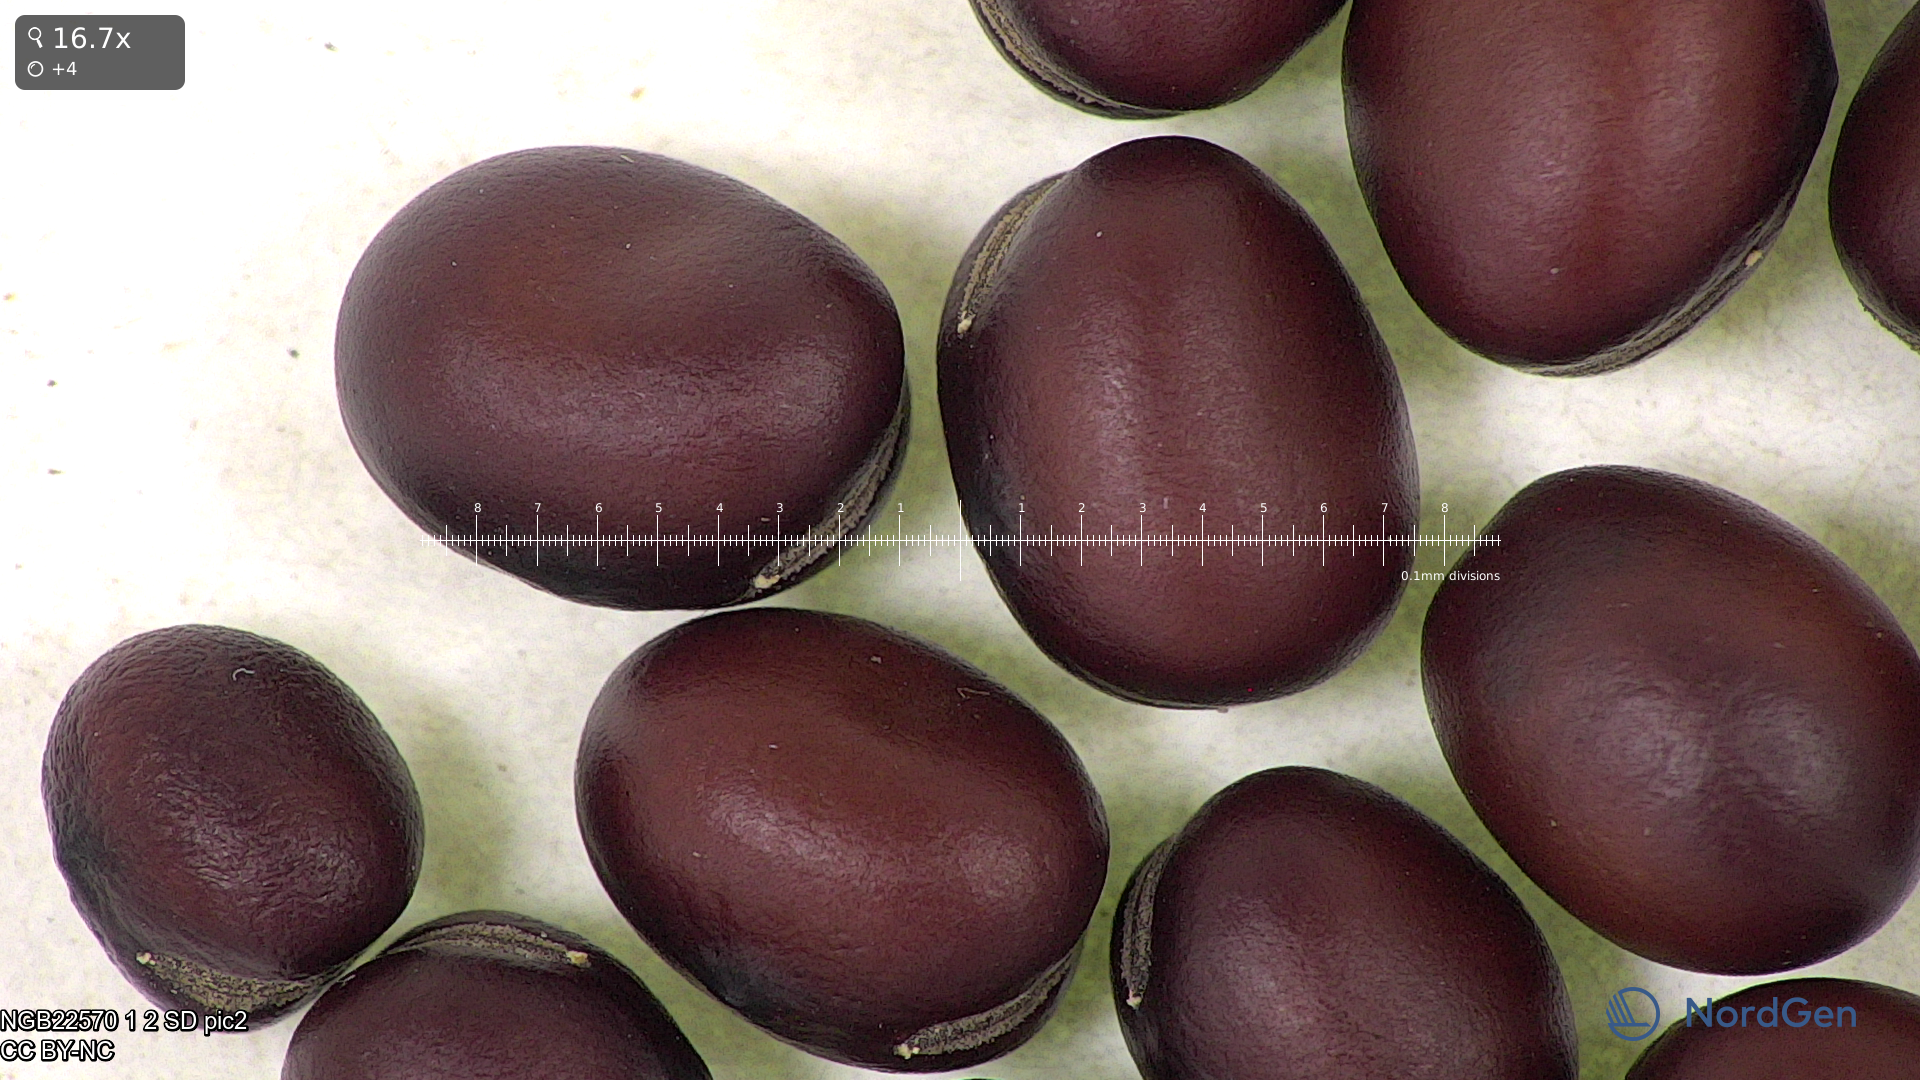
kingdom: Plantae
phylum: Tracheophyta
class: Magnoliopsida
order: Fabales
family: Fabaceae
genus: Vicia
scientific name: Vicia faba
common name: Broad bean
